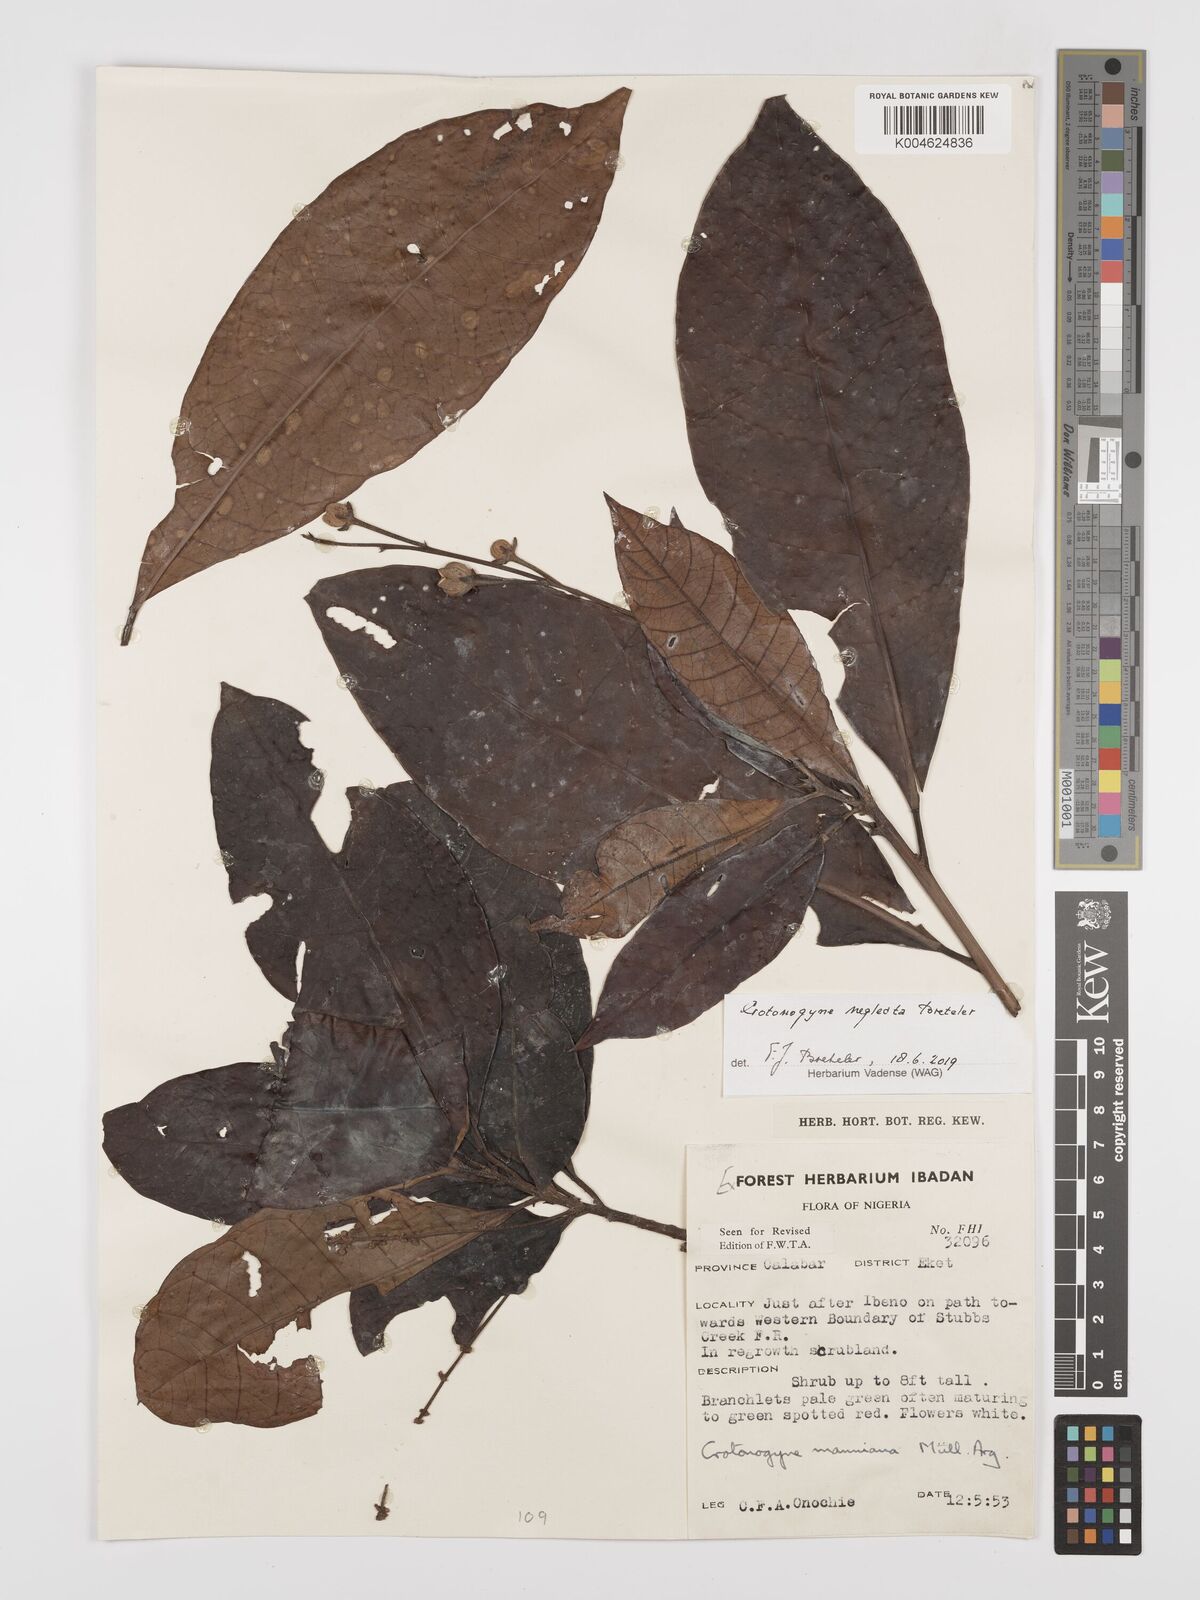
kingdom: Plantae
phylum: Tracheophyta
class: Magnoliopsida
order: Malpighiales
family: Euphorbiaceae
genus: Crotonogyne
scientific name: Crotonogyne neglecta
